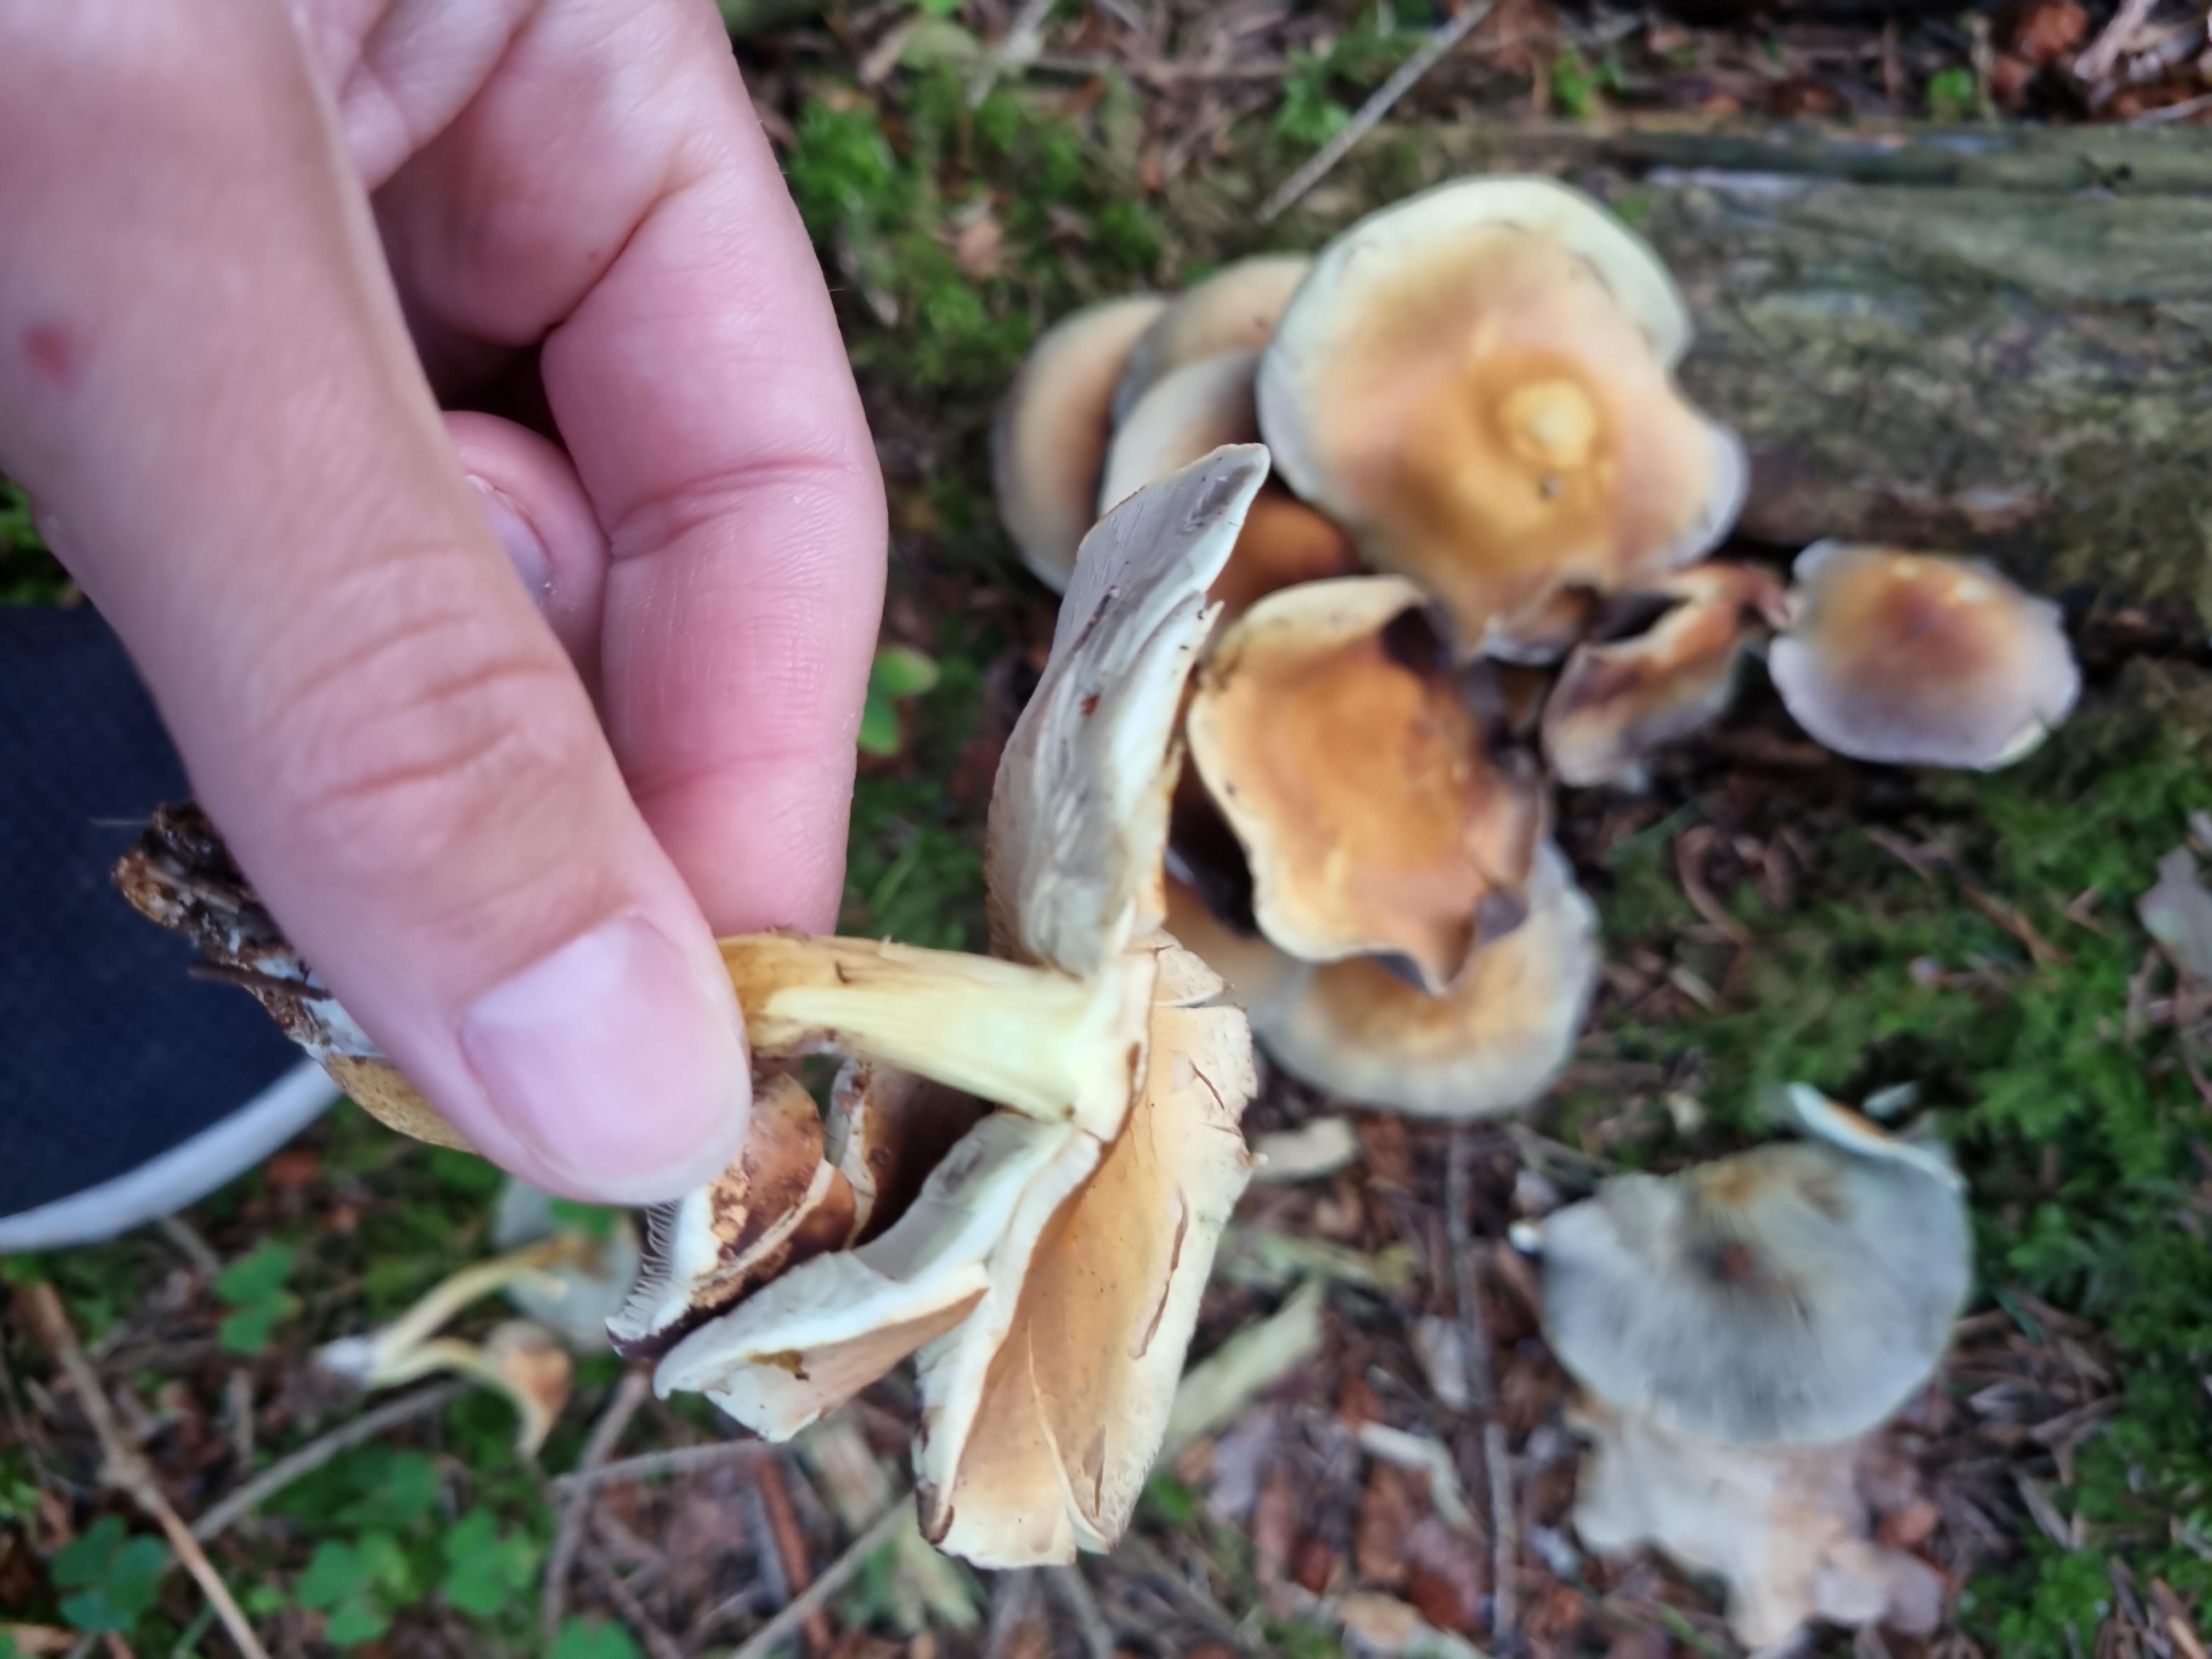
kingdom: Fungi
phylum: Basidiomycota
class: Agaricomycetes
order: Agaricales
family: Strophariaceae
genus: Hypholoma
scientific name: Hypholoma fasciculare
